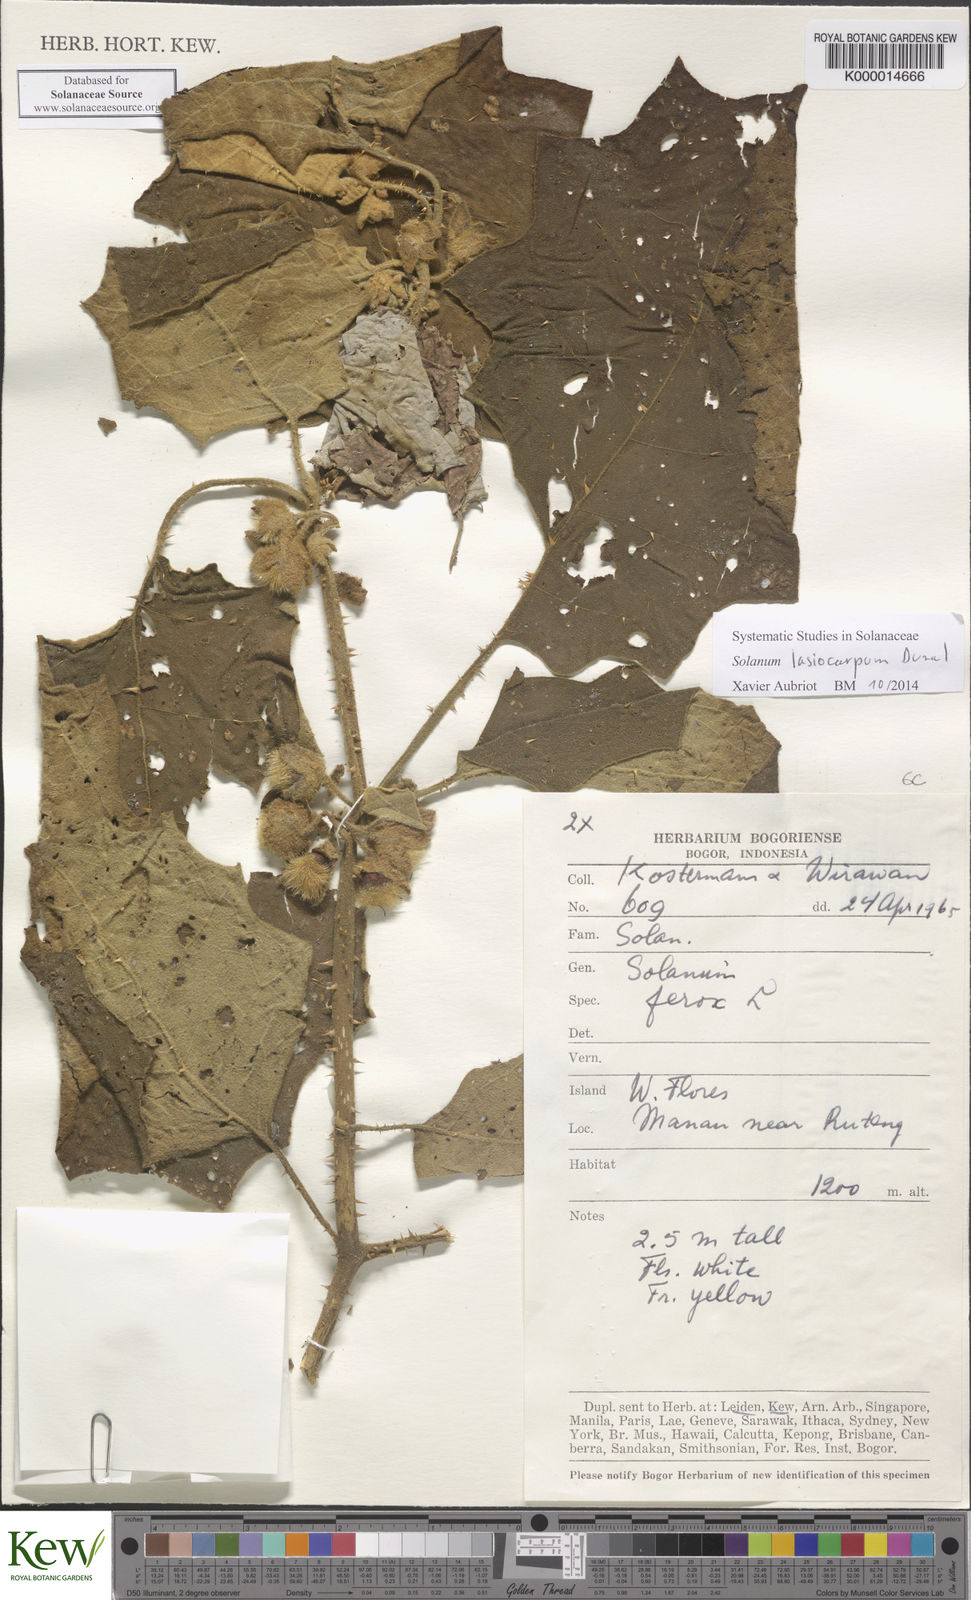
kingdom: Plantae
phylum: Tracheophyta
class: Magnoliopsida
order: Solanales
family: Solanaceae
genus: Solanum
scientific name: Solanum lasiocarpum
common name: Indian nightshade
